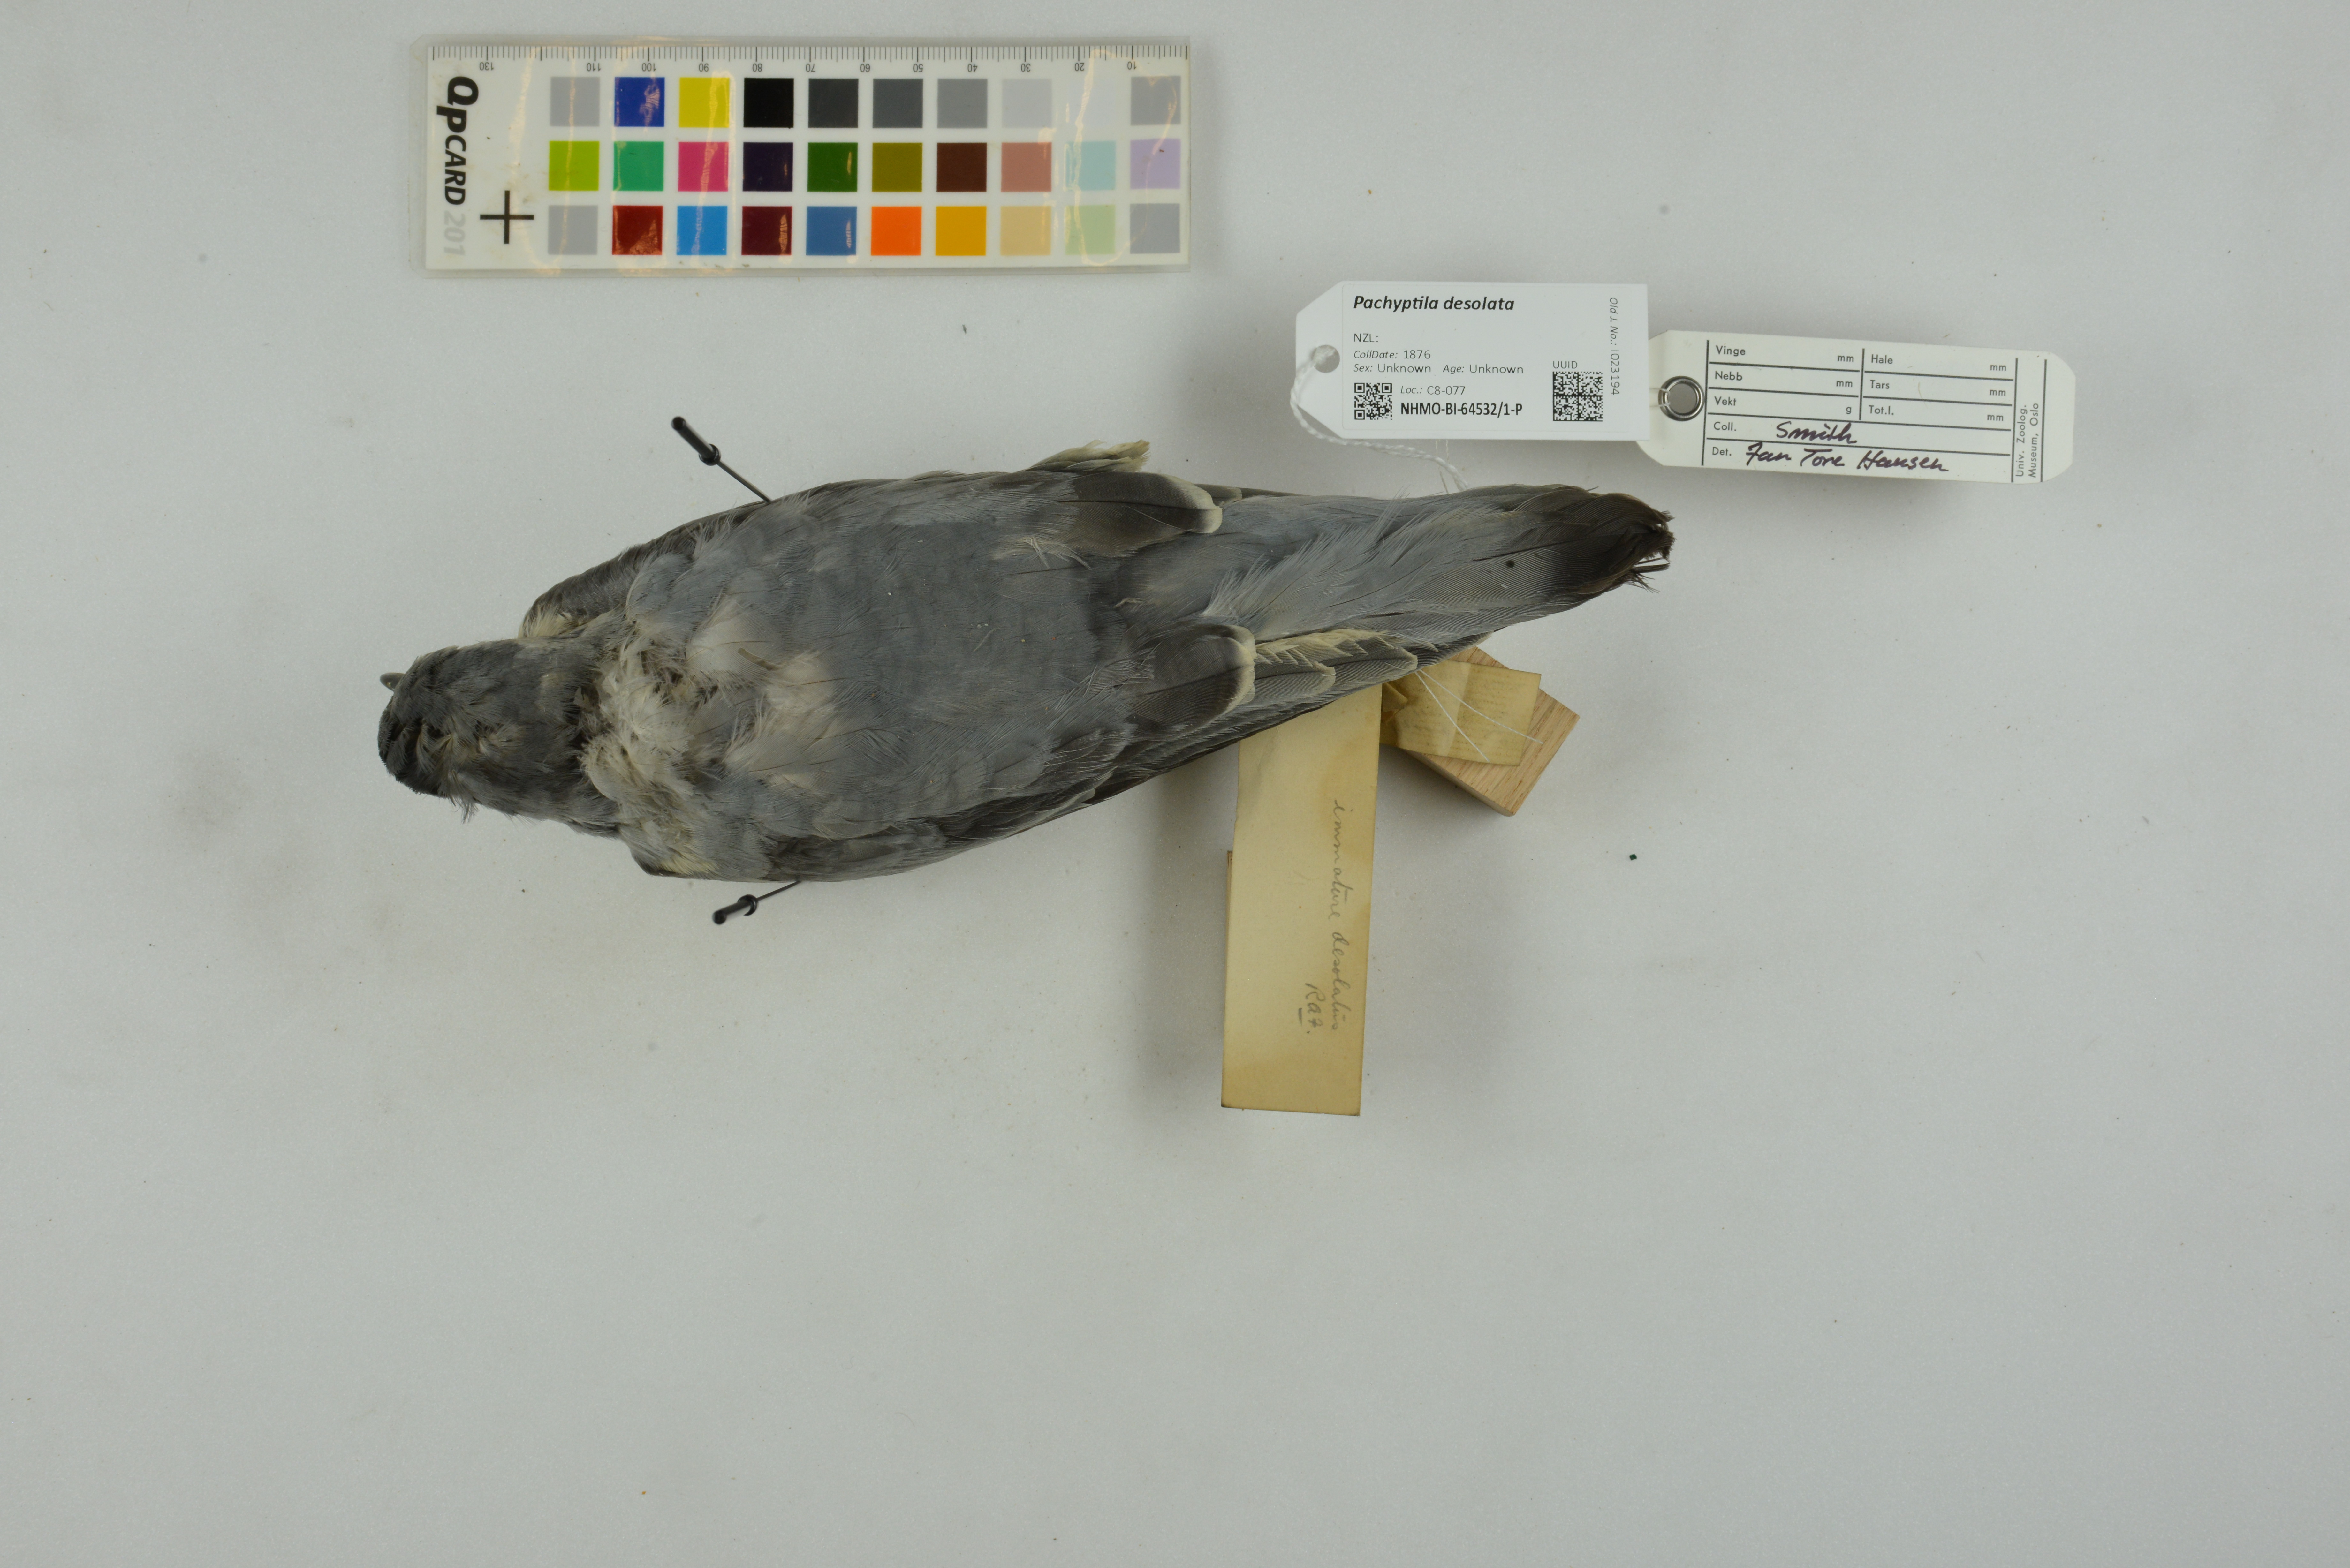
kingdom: Animalia
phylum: Chordata
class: Aves
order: Procellariiformes
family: Procellariidae
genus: Pachyptila
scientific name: Pachyptila desolata
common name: Antarctic prion
